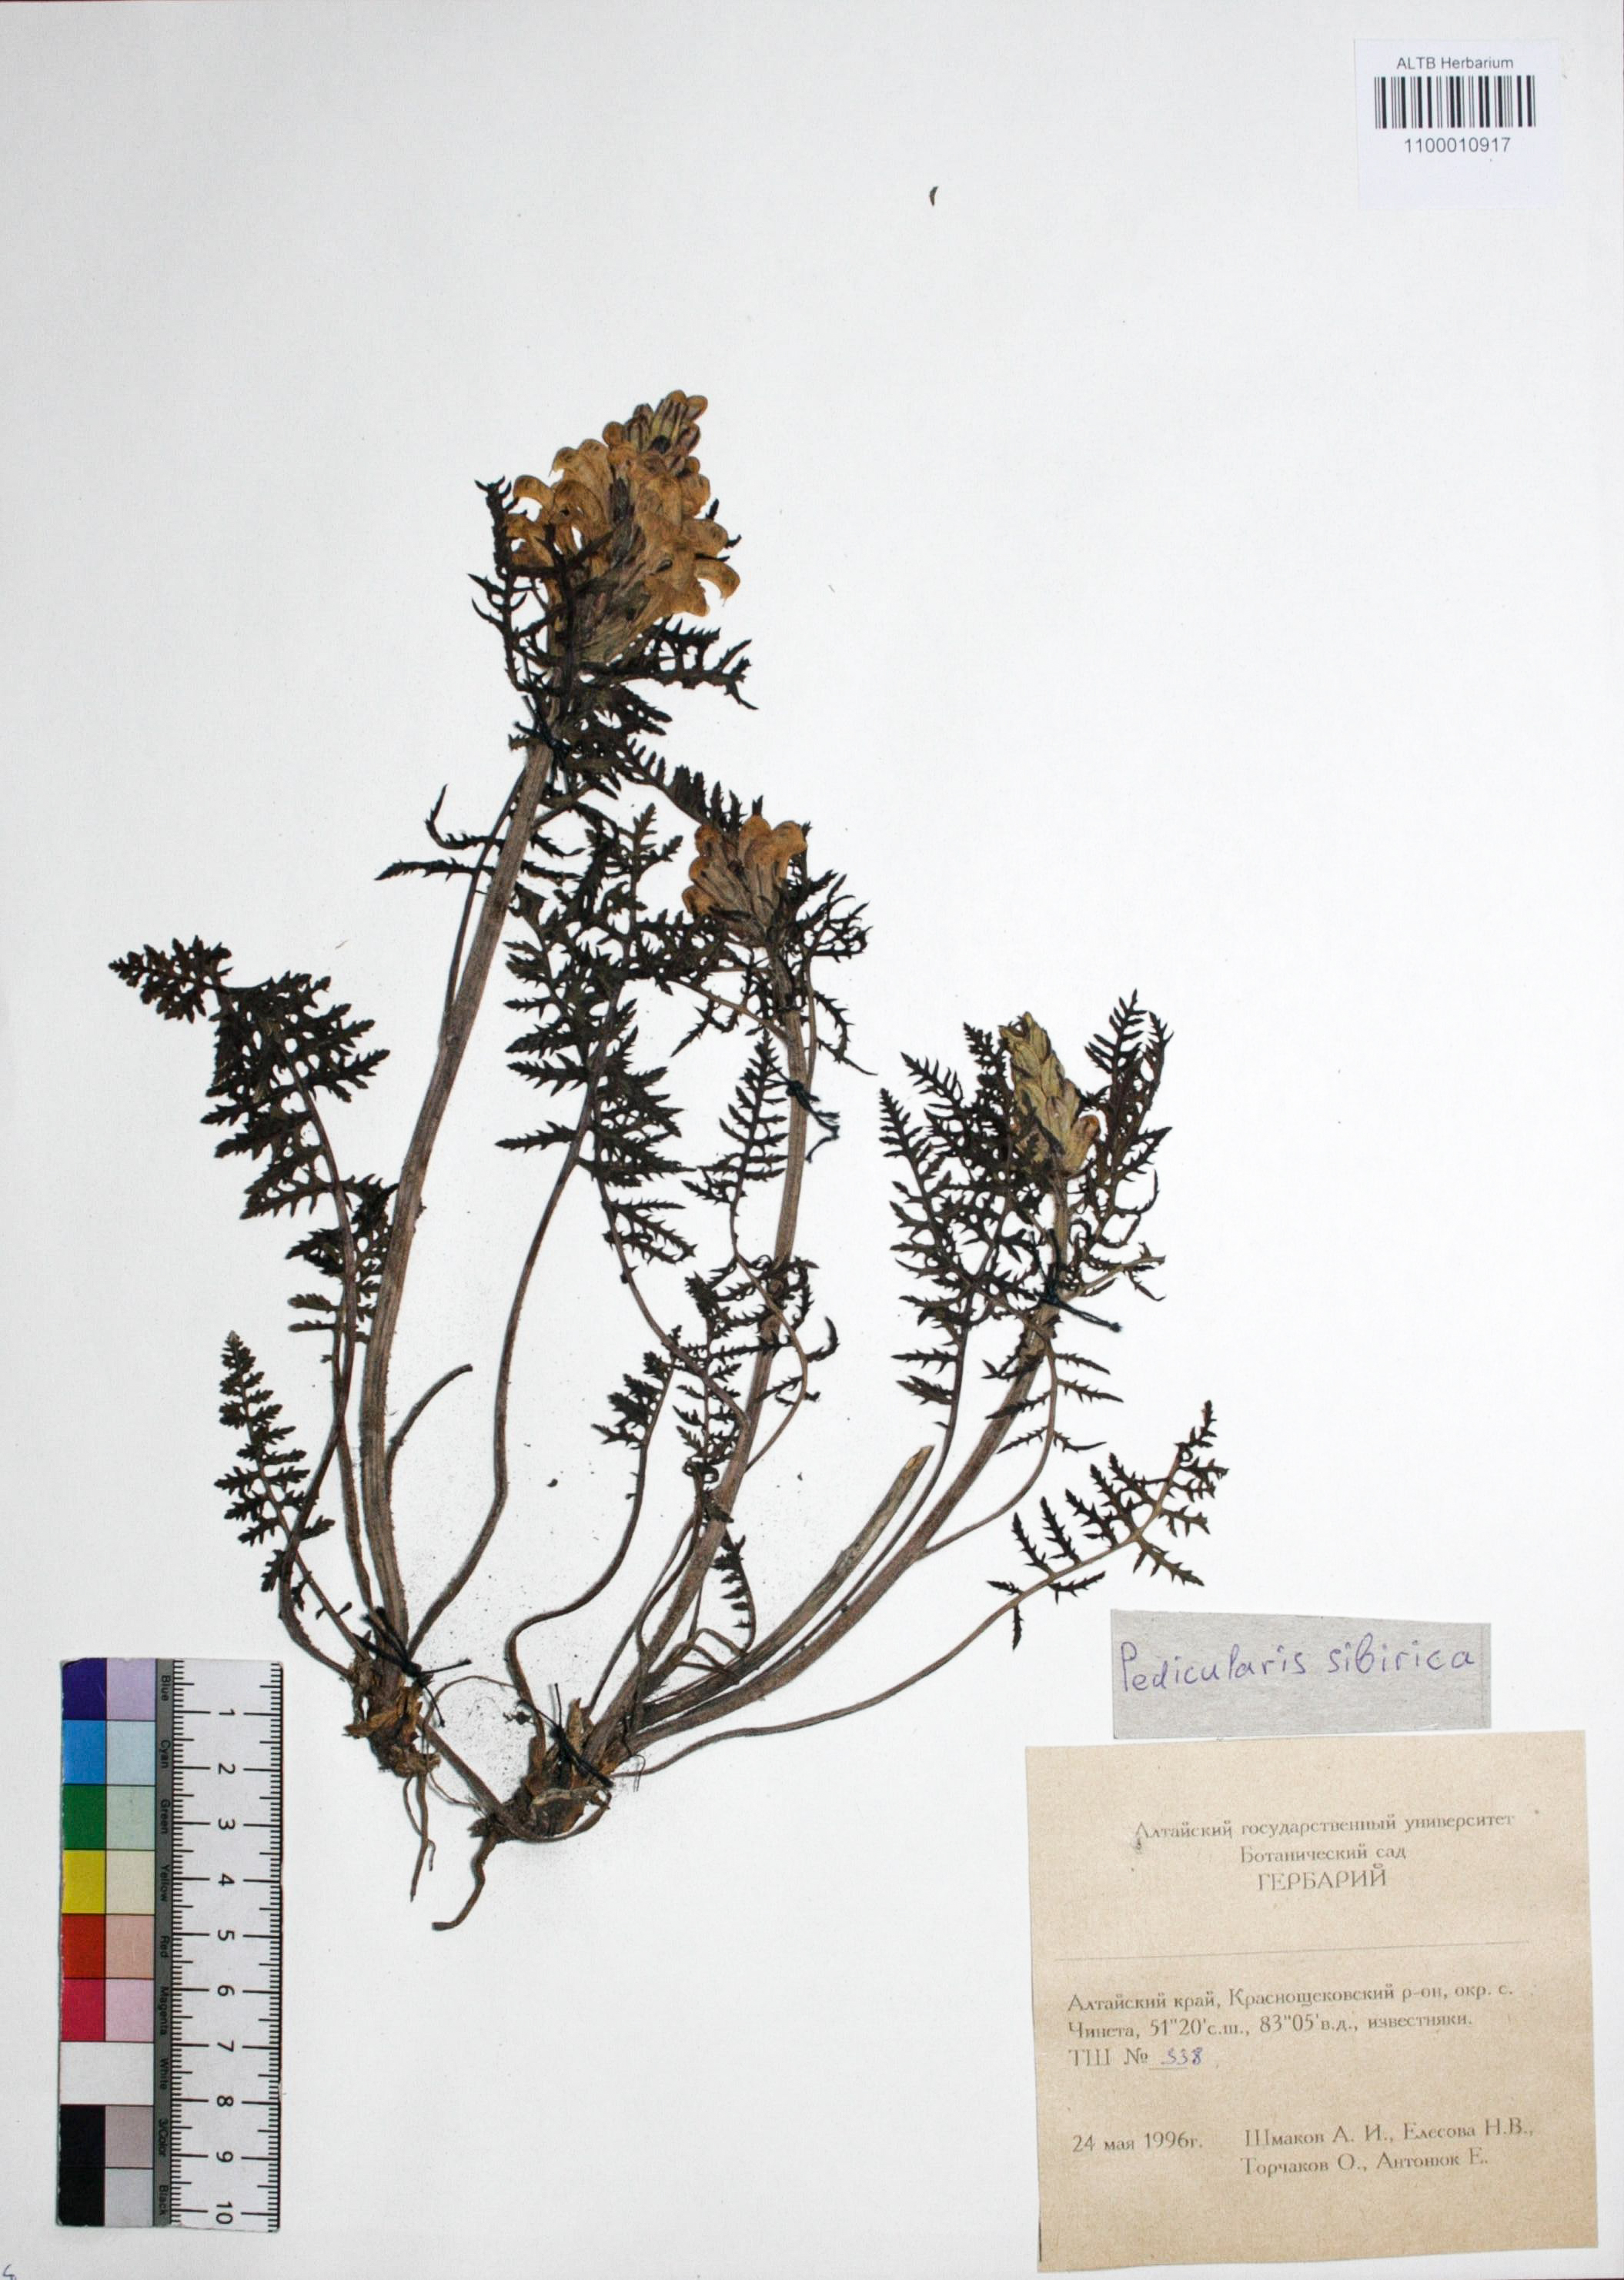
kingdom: Plantae
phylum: Tracheophyta
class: Magnoliopsida
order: Lamiales
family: Orobanchaceae
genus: Pedicularis
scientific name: Pedicularis sibirica
